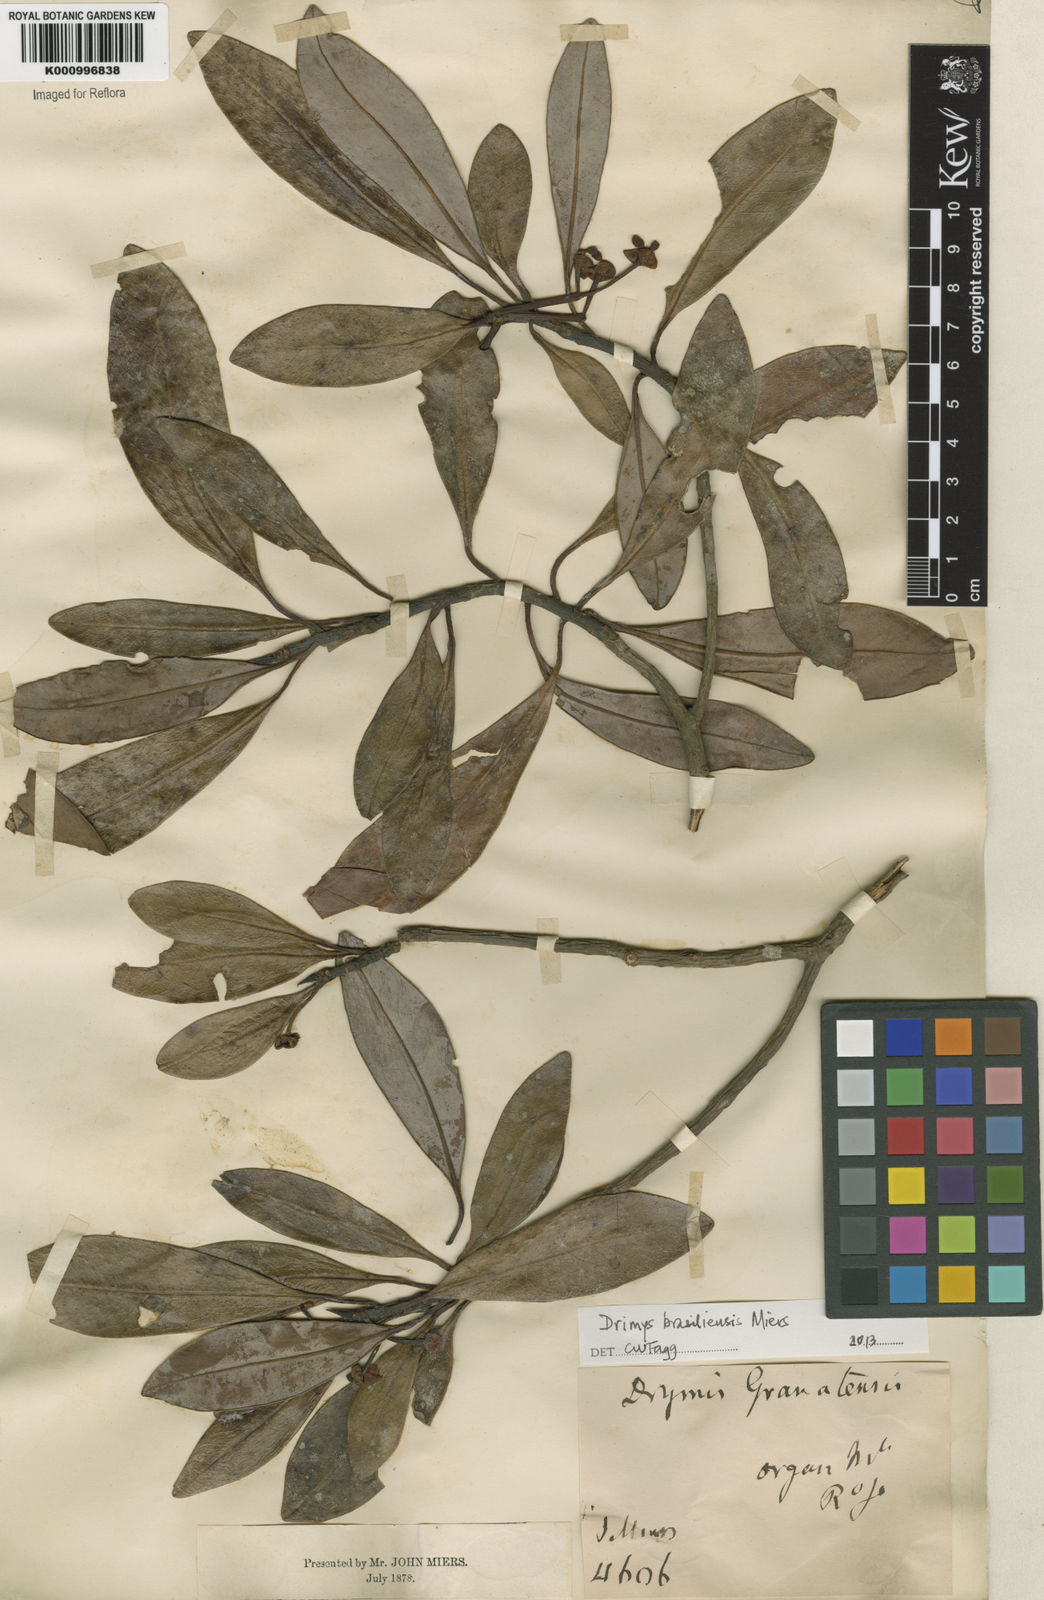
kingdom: Plantae
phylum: Tracheophyta
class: Magnoliopsida
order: Canellales
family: Winteraceae
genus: Drimys
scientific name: Drimys brasiliensis
